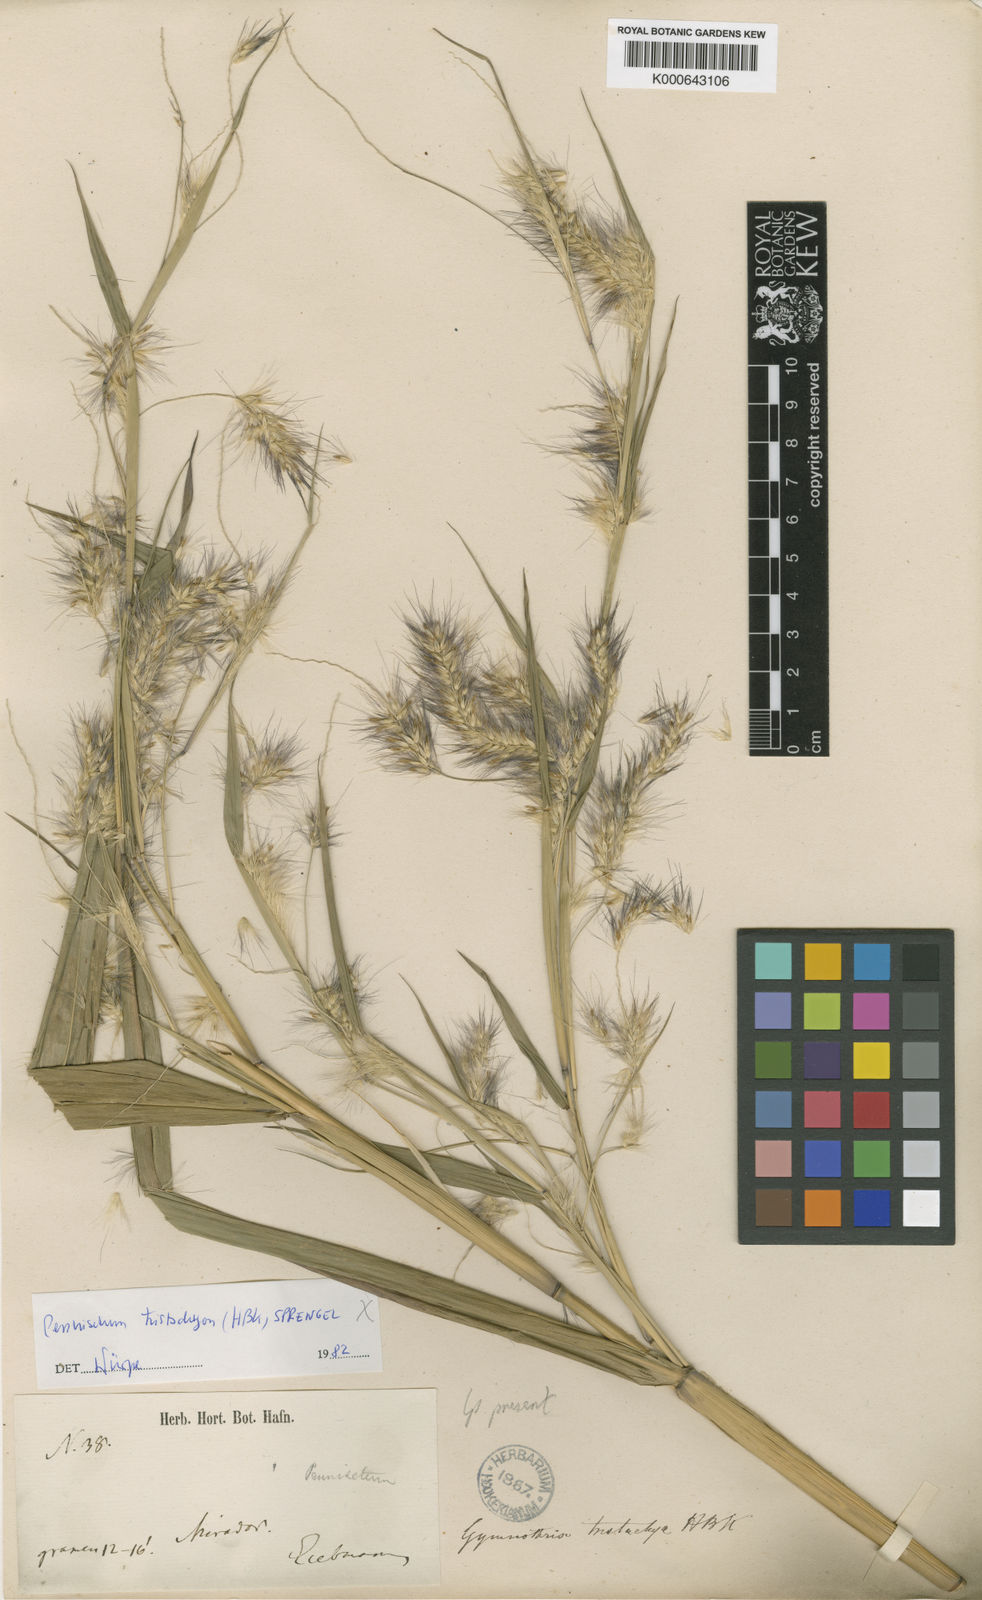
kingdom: Plantae
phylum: Tracheophyta
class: Liliopsida
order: Poales
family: Poaceae
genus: Cenchrus
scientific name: Cenchrus Pennisetum spec
